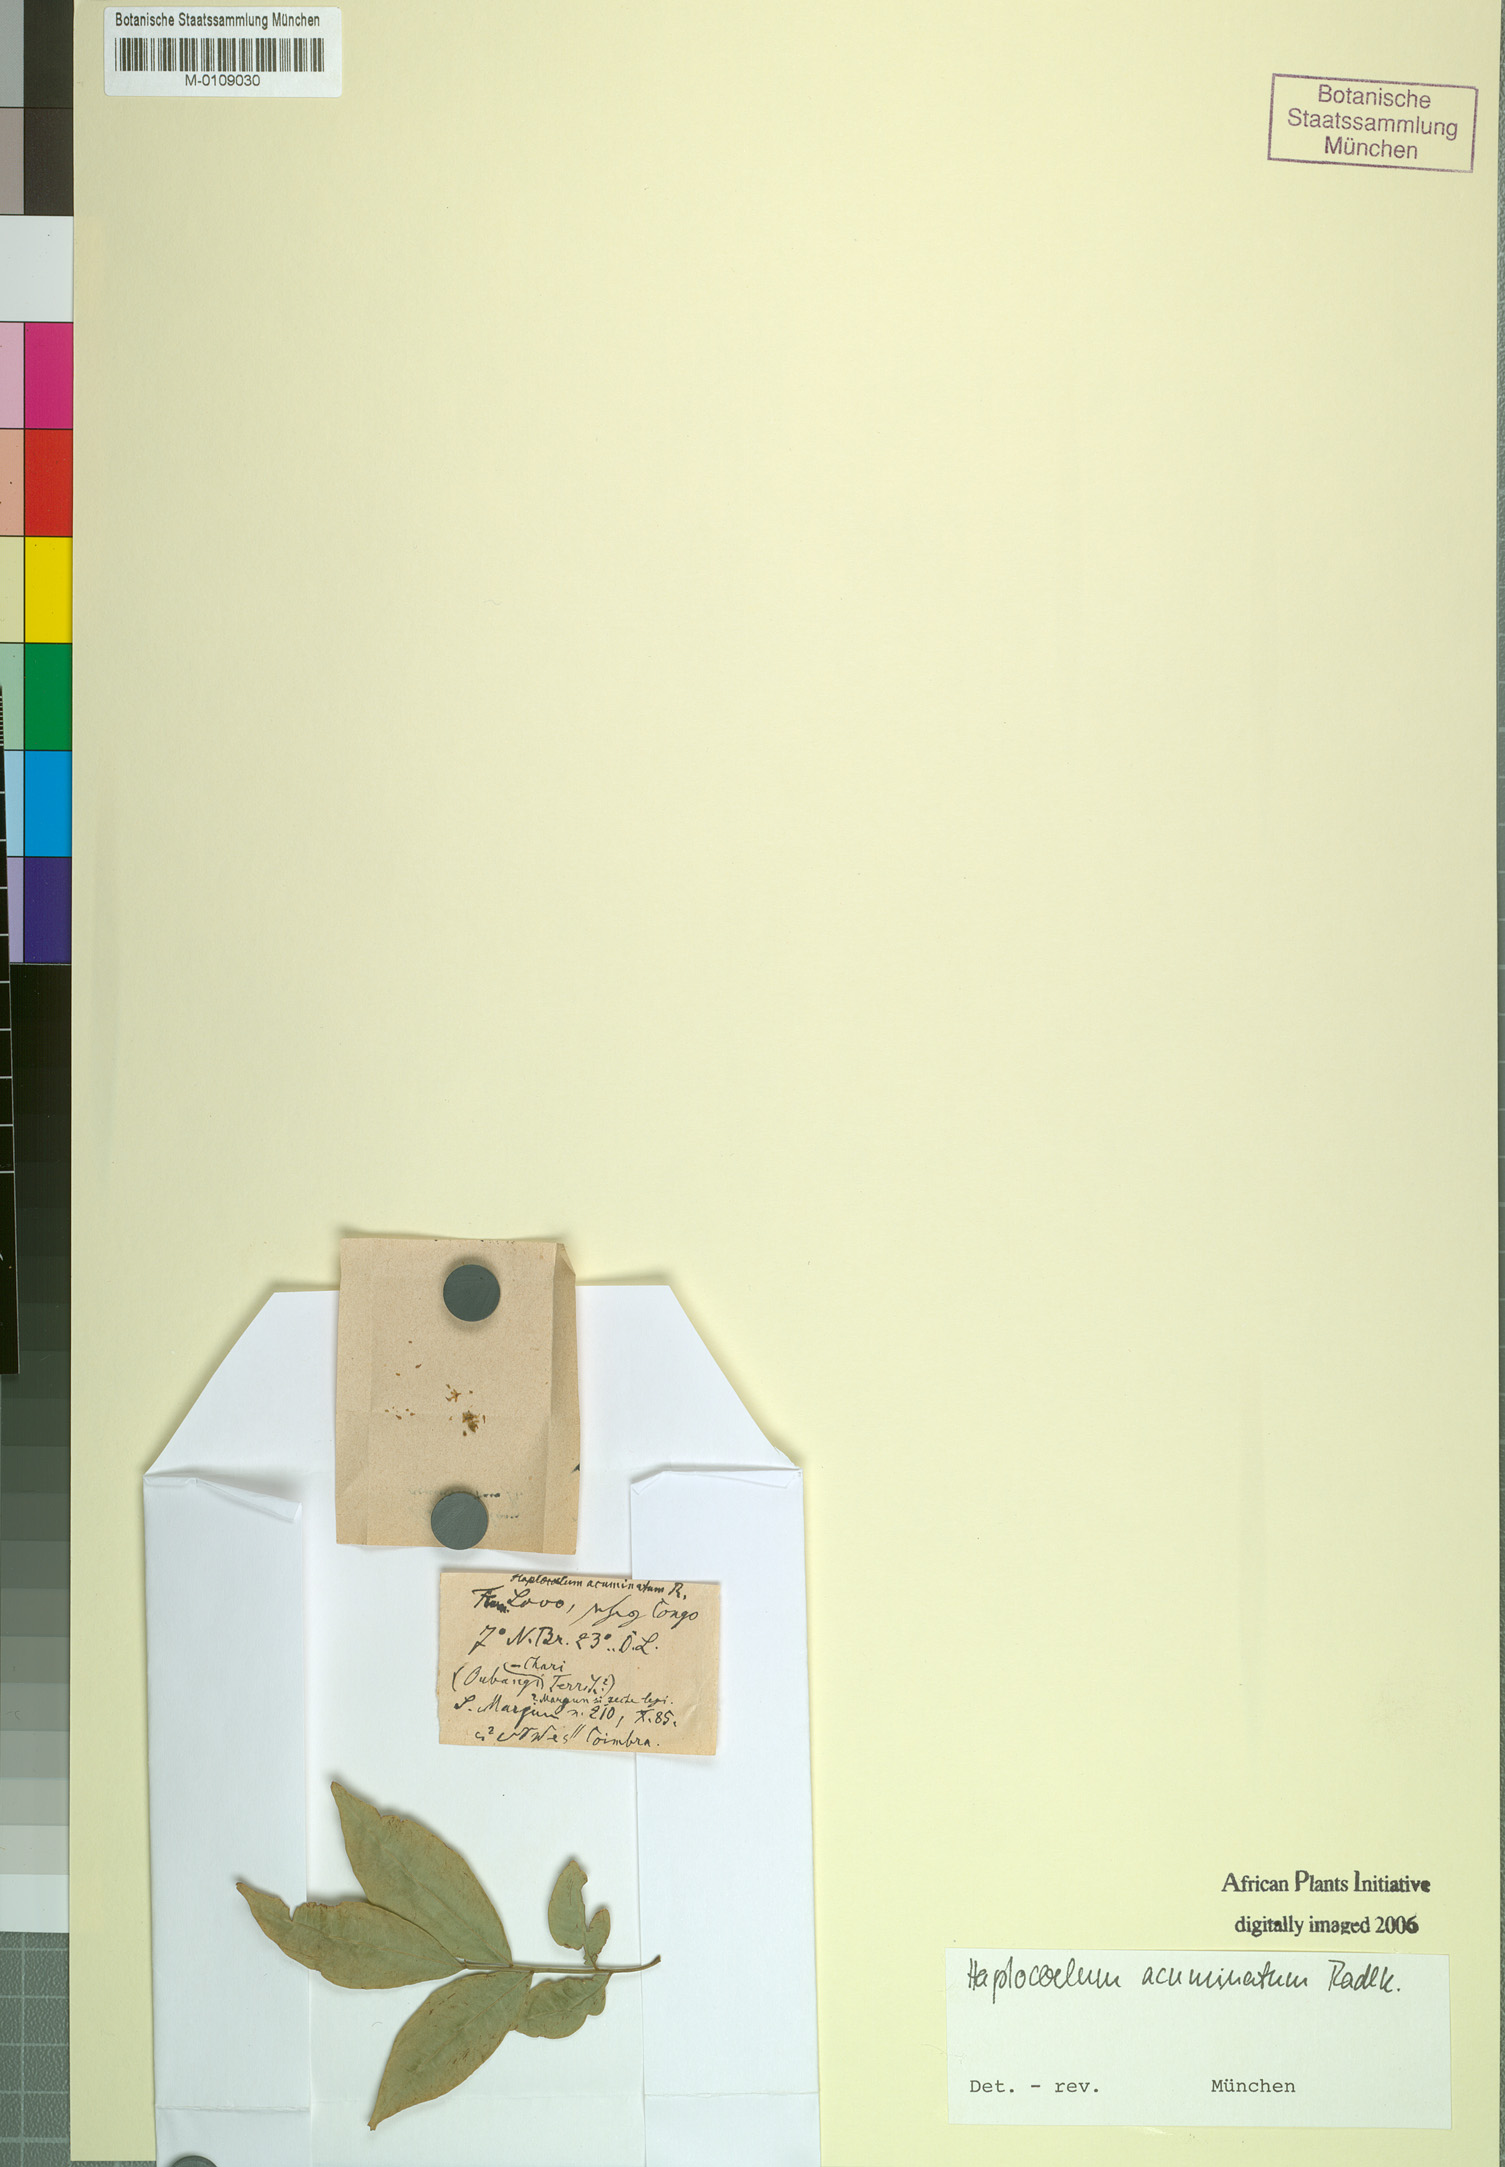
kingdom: Plantae
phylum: Tracheophyta
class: Magnoliopsida
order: Sapindales
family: Sapindaceae
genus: Haplocoelum
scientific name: Haplocoelum acuminatum
